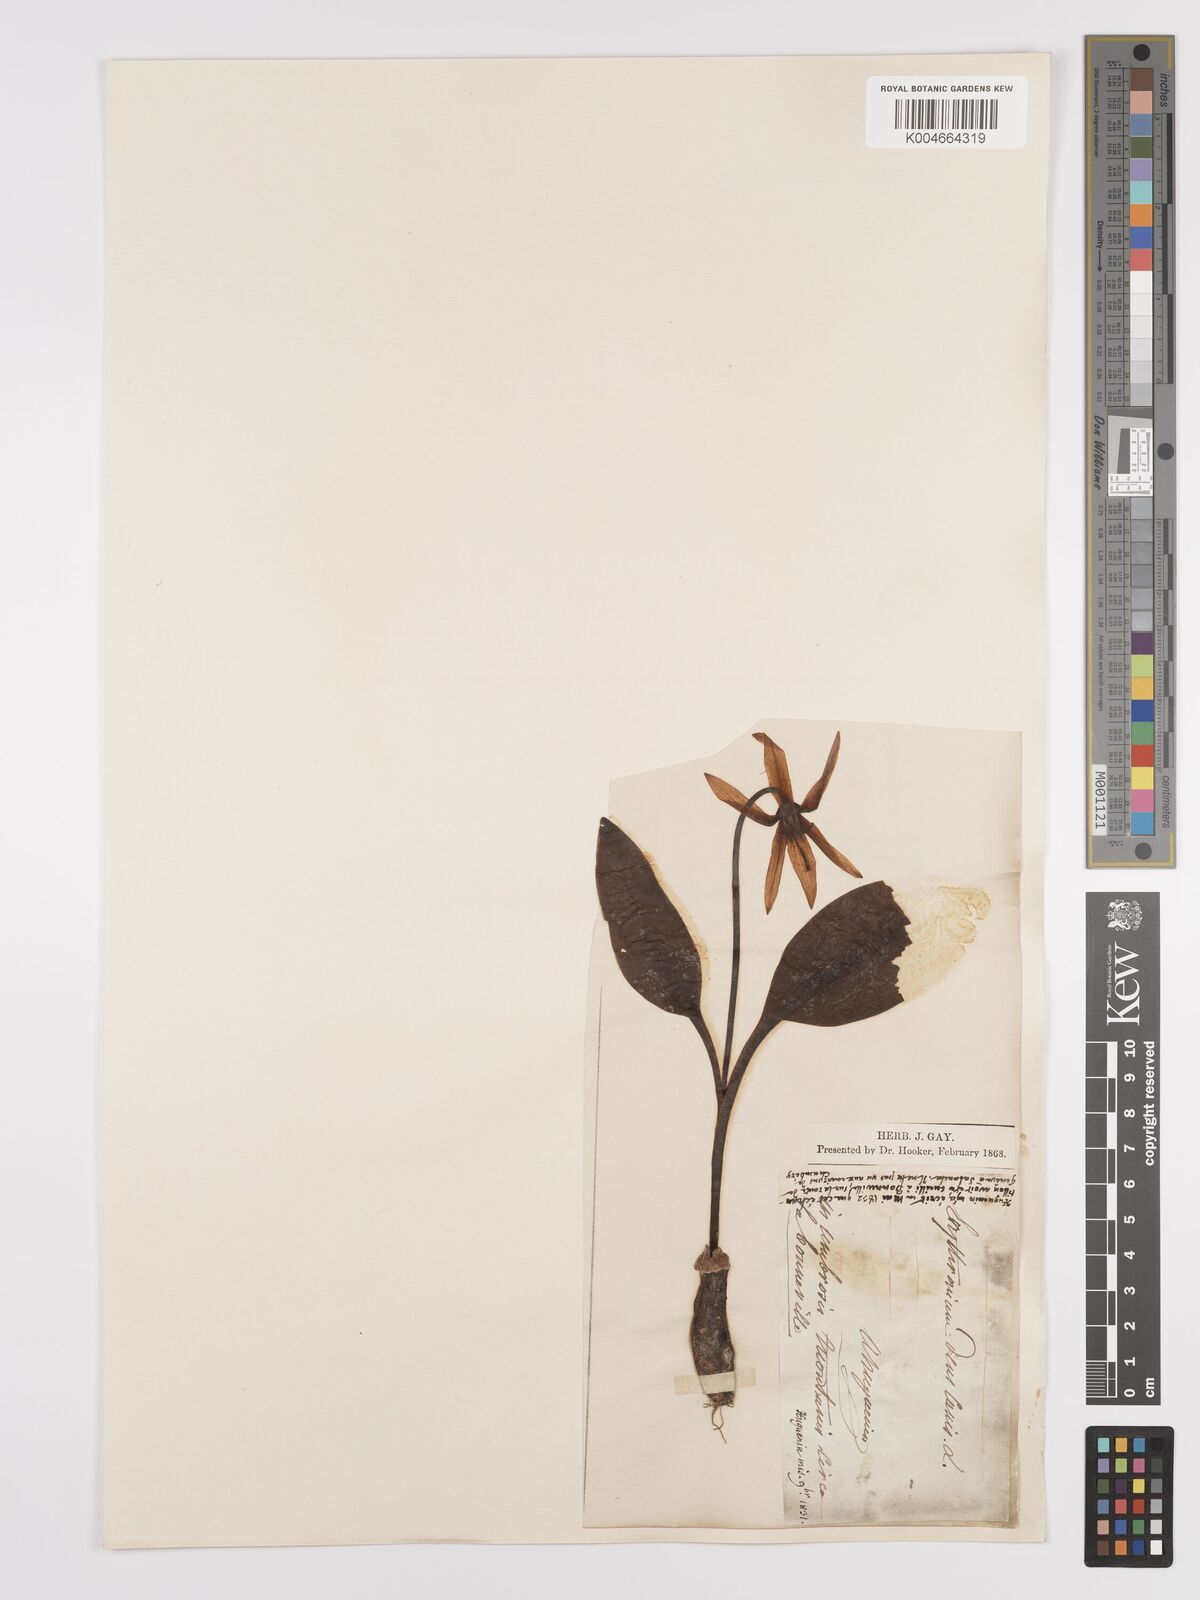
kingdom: Plantae
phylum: Tracheophyta
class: Liliopsida
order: Liliales
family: Liliaceae
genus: Erythronium
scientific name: Erythronium dens-canis
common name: Dog's-tooth-violet
